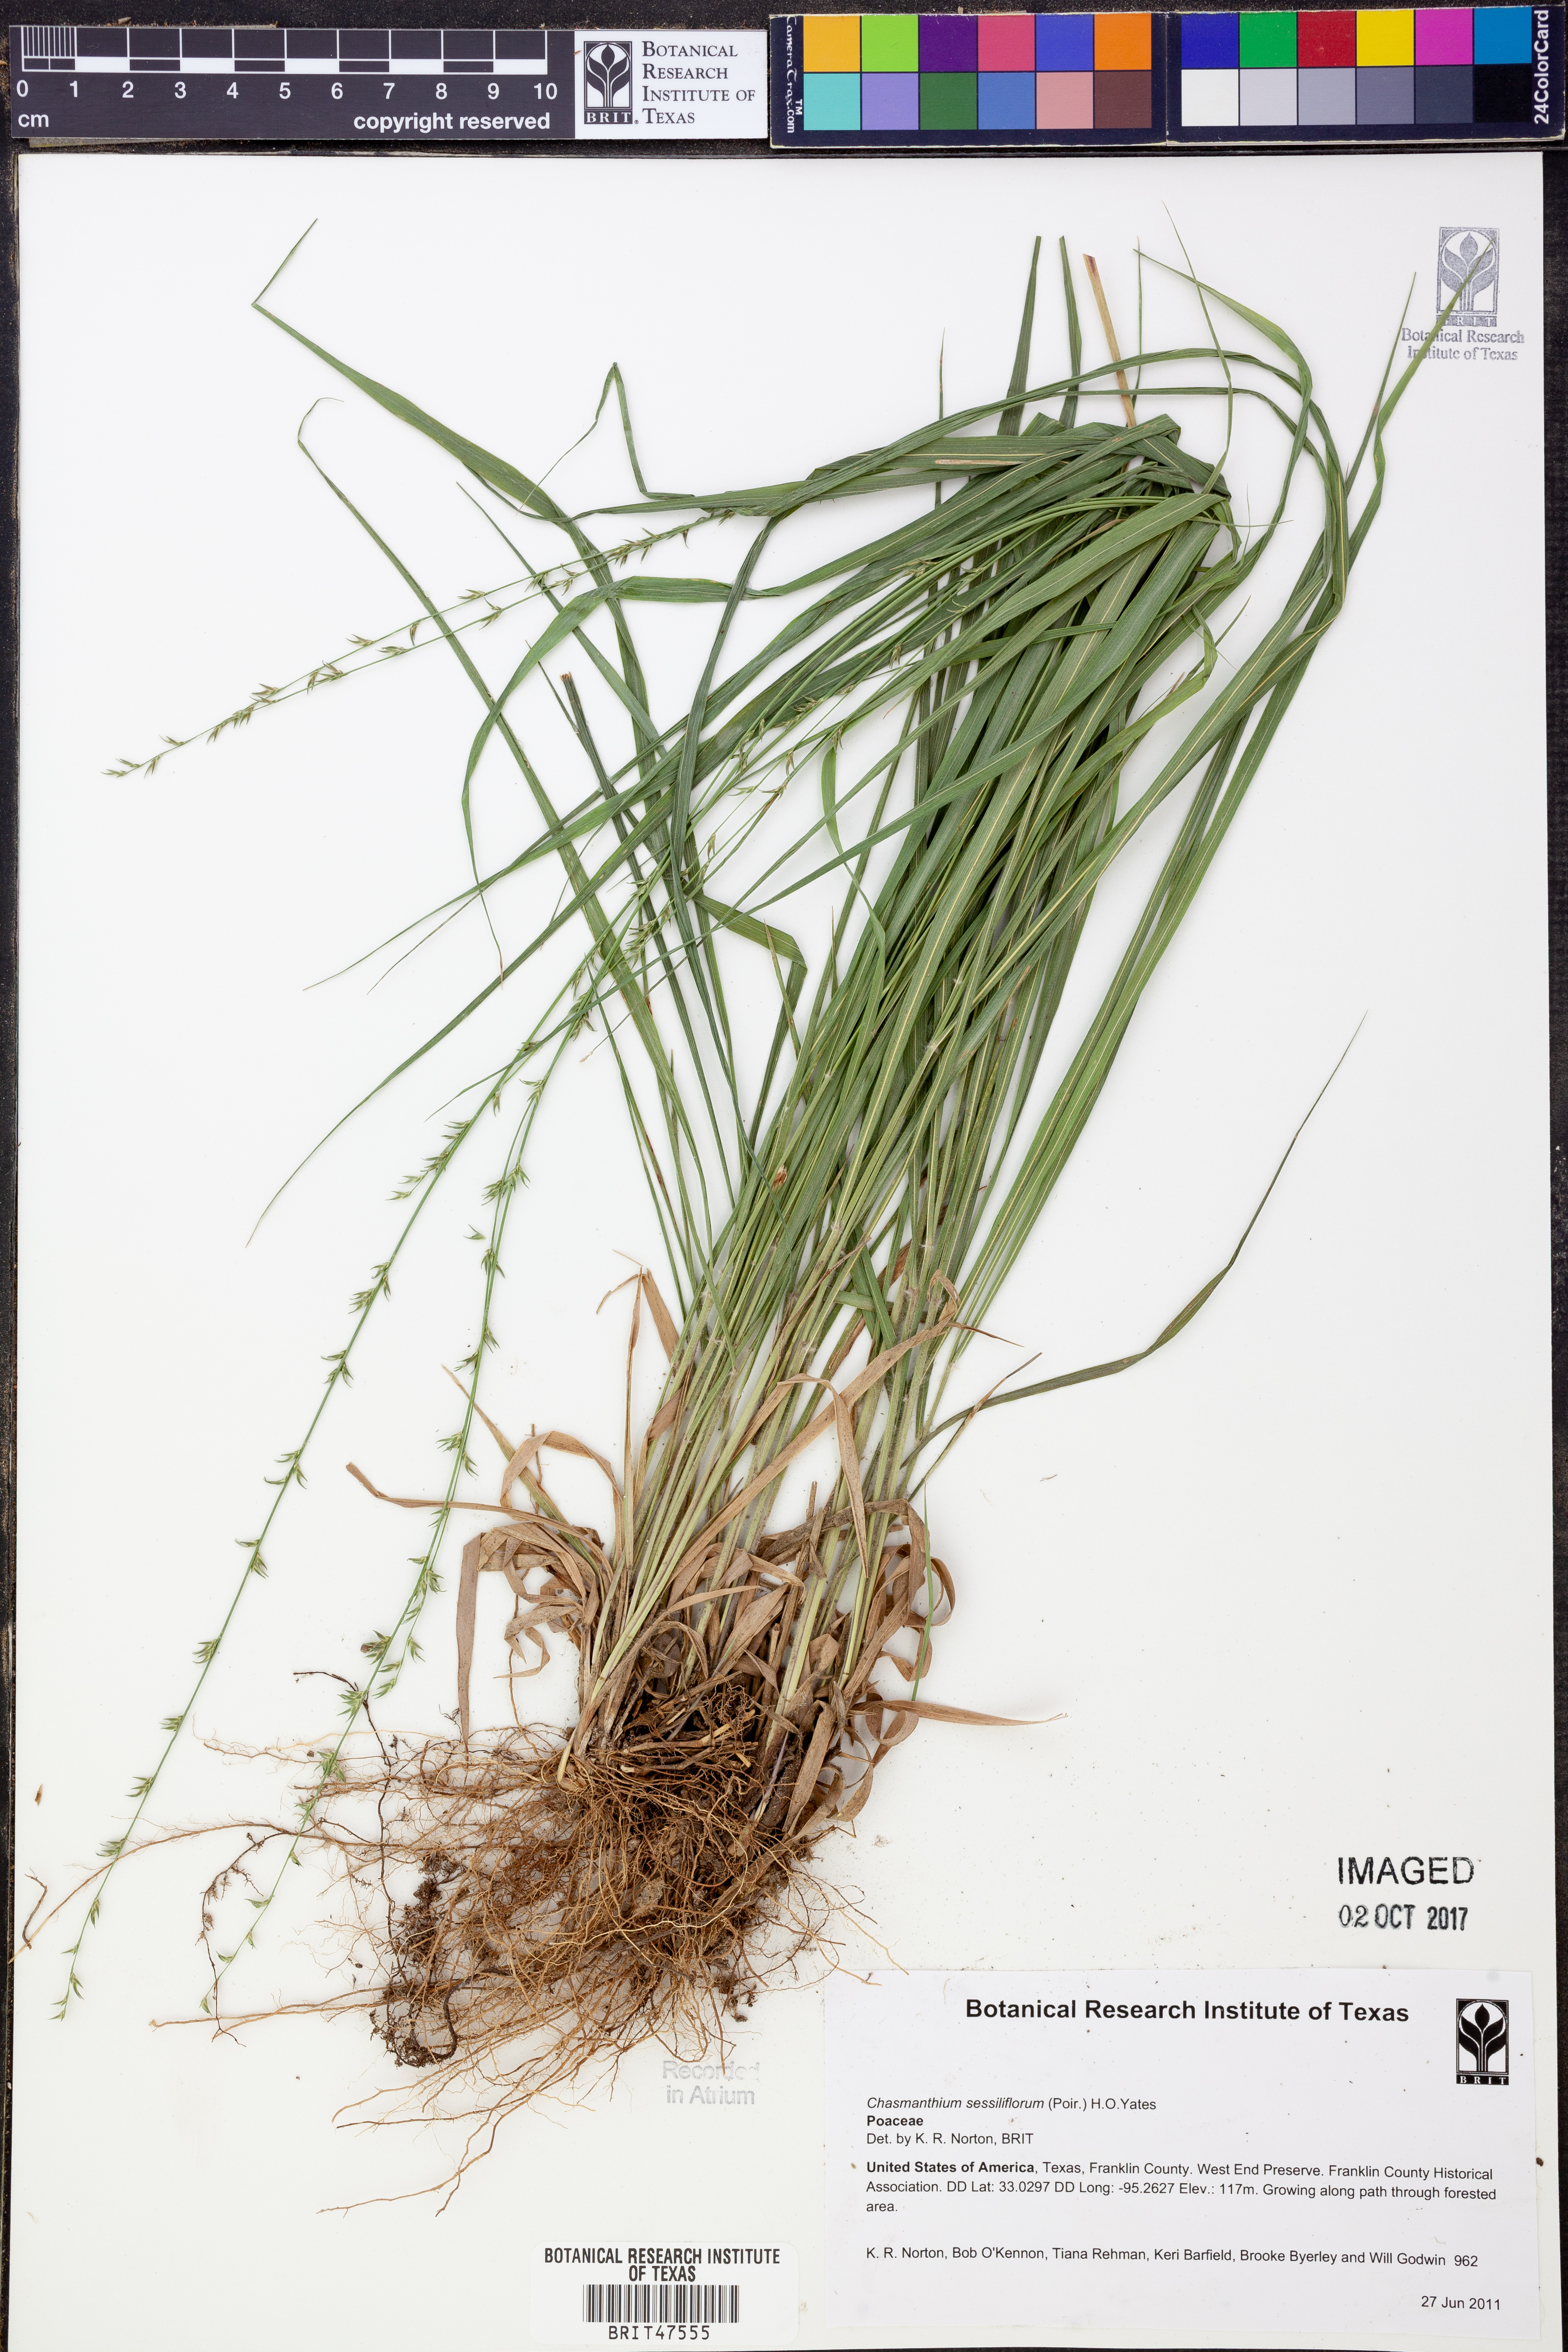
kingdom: Plantae
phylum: Tracheophyta
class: Liliopsida
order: Poales
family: Poaceae
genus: Chasmanthium
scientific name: Chasmanthium laxum
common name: Slender chasmanthium
